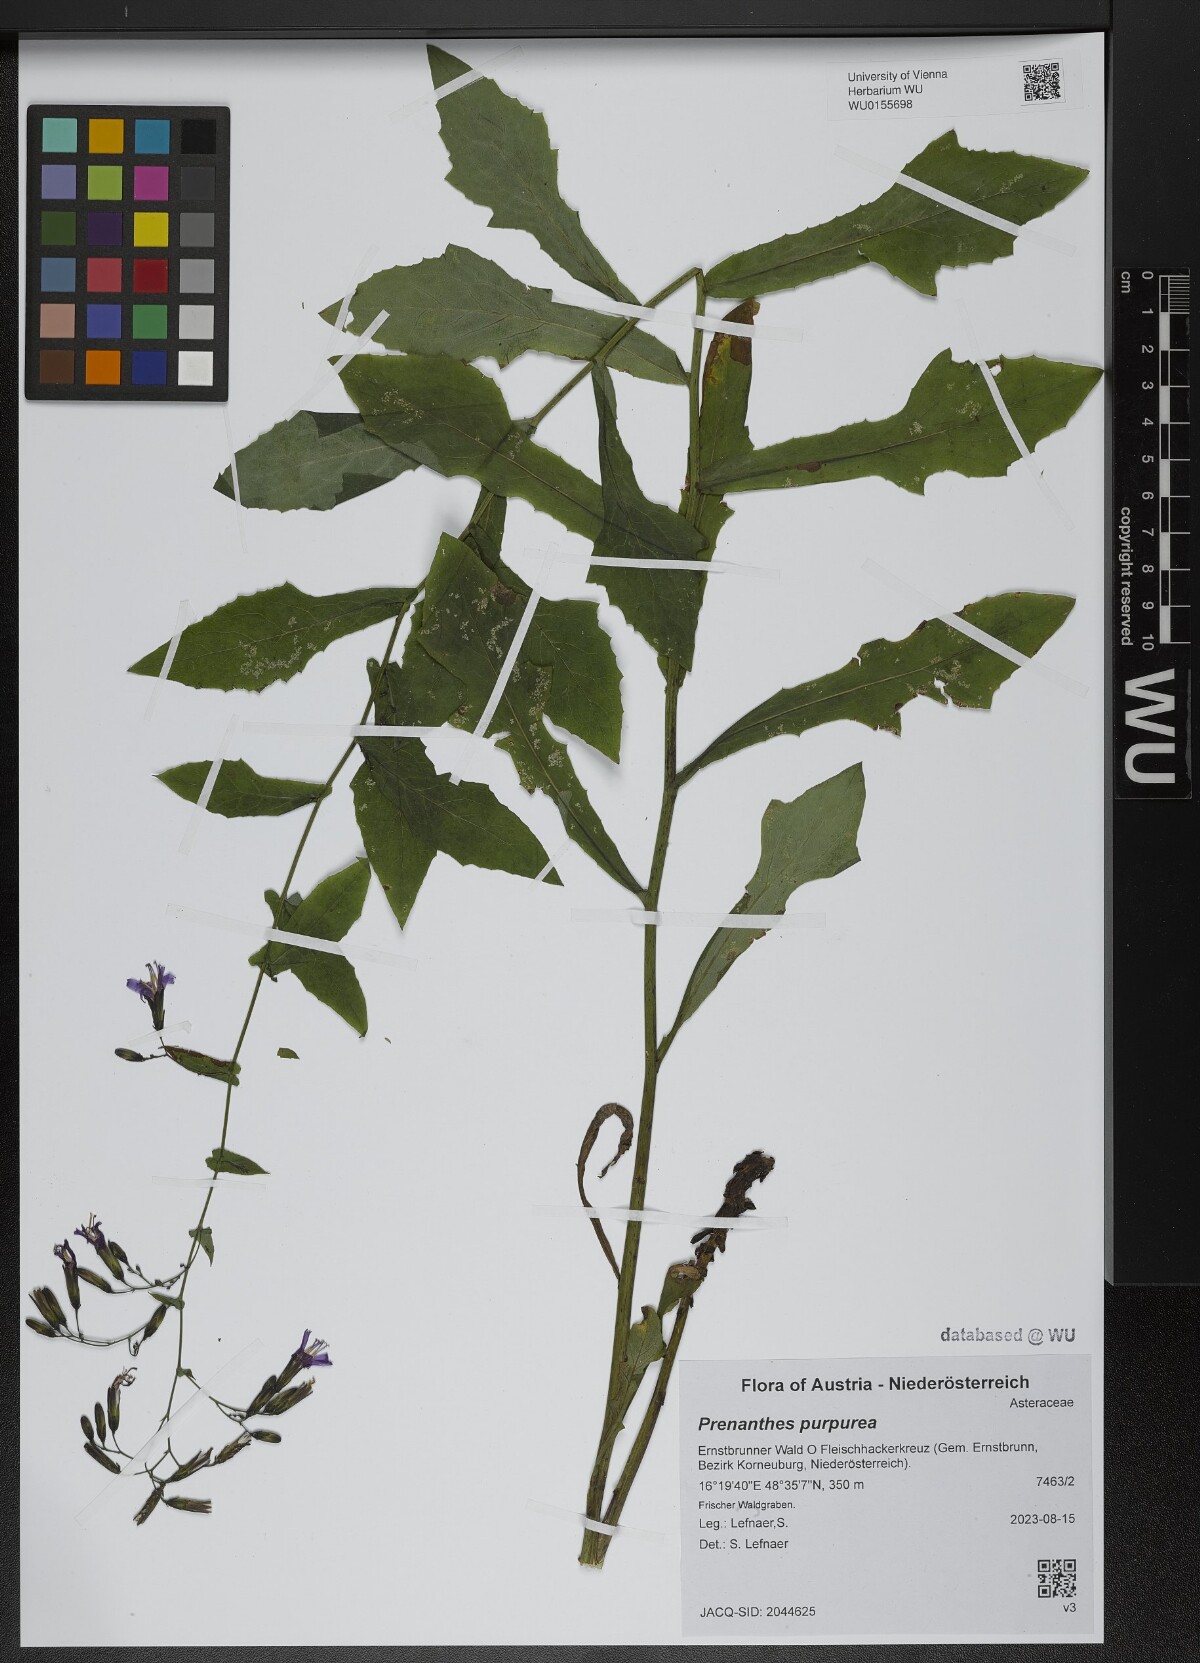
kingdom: Plantae
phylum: Tracheophyta
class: Magnoliopsida
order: Asterales
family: Asteraceae
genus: Prenanthes
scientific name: Prenanthes purpurea
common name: Purple lettuce
